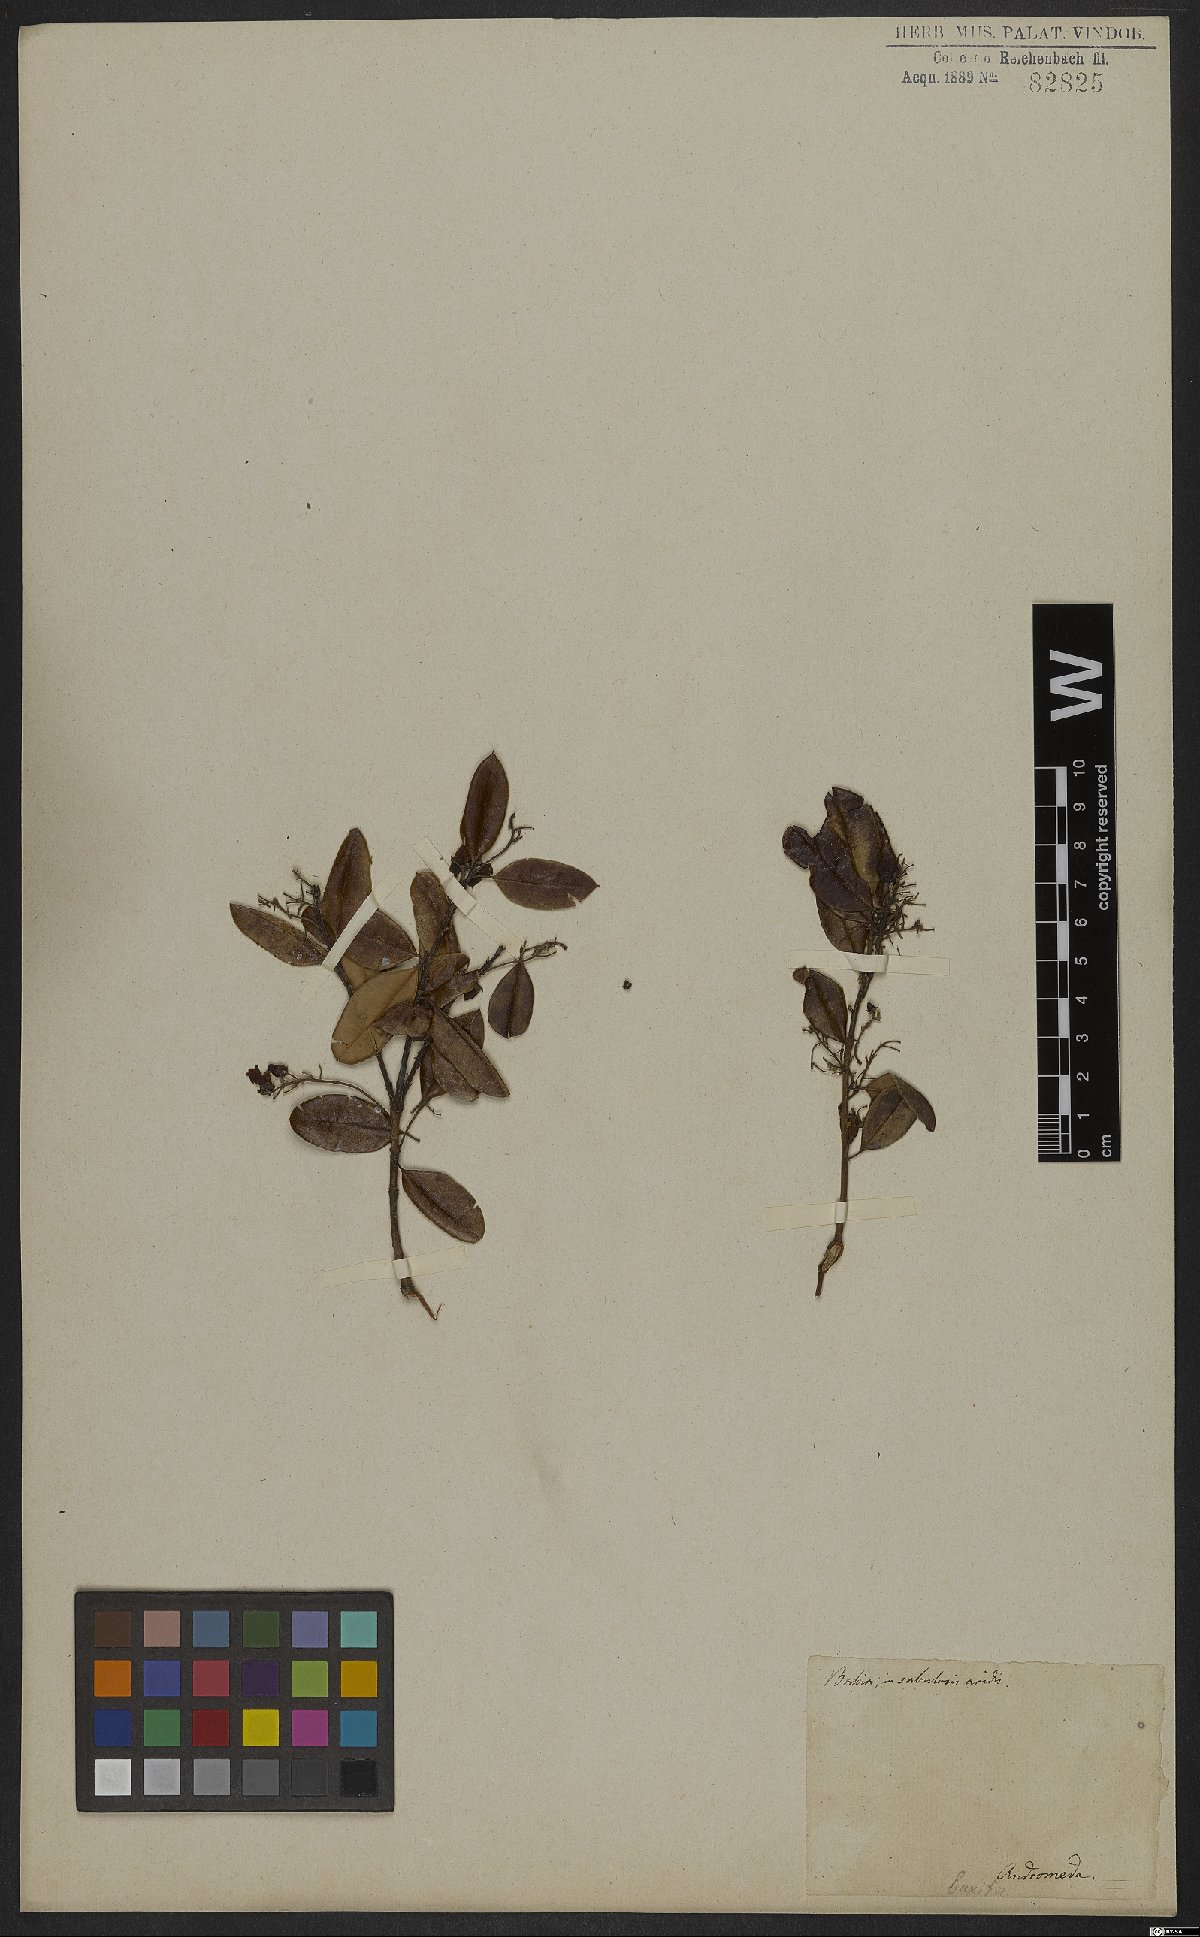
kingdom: Plantae
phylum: Tracheophyta
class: Magnoliopsida
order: Ericales
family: Ericaceae
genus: Agarista
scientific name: Agarista buxifolia
